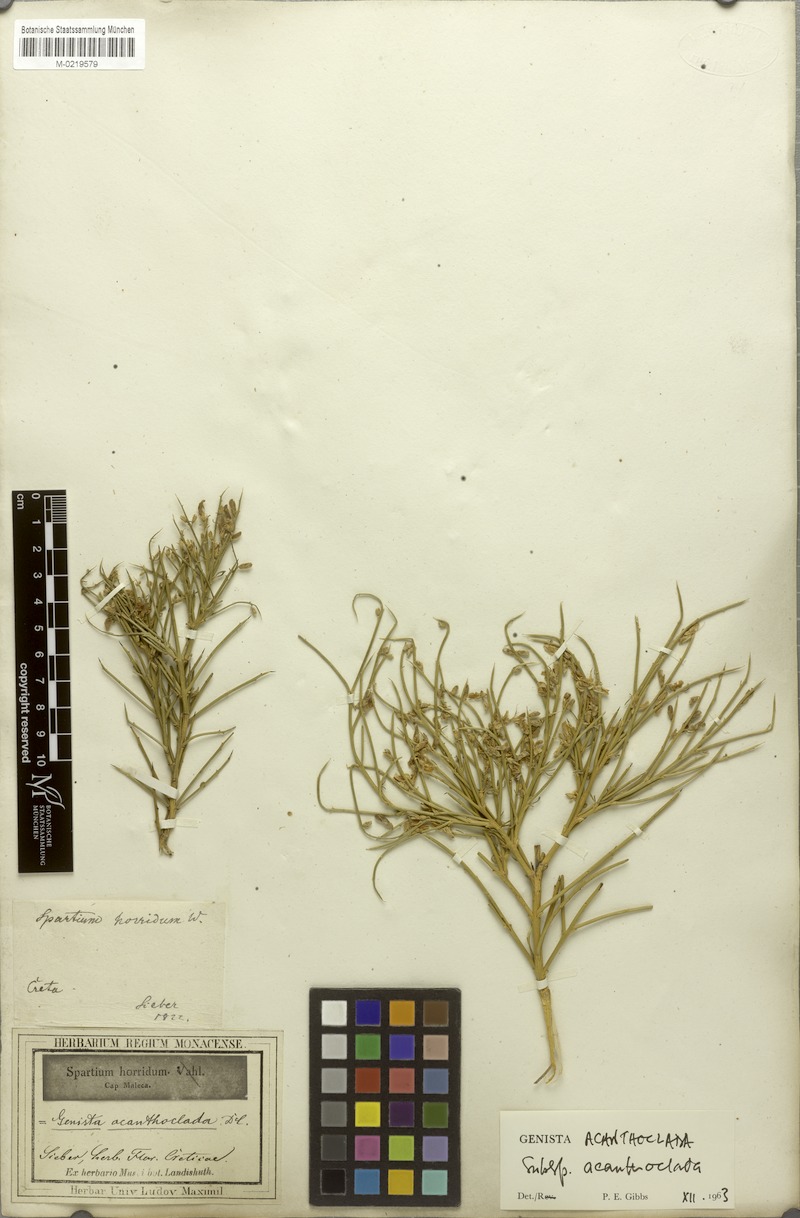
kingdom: Plantae
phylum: Tracheophyta
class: Magnoliopsida
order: Fabales
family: Fabaceae
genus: Genista
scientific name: Genista acanthoclada
